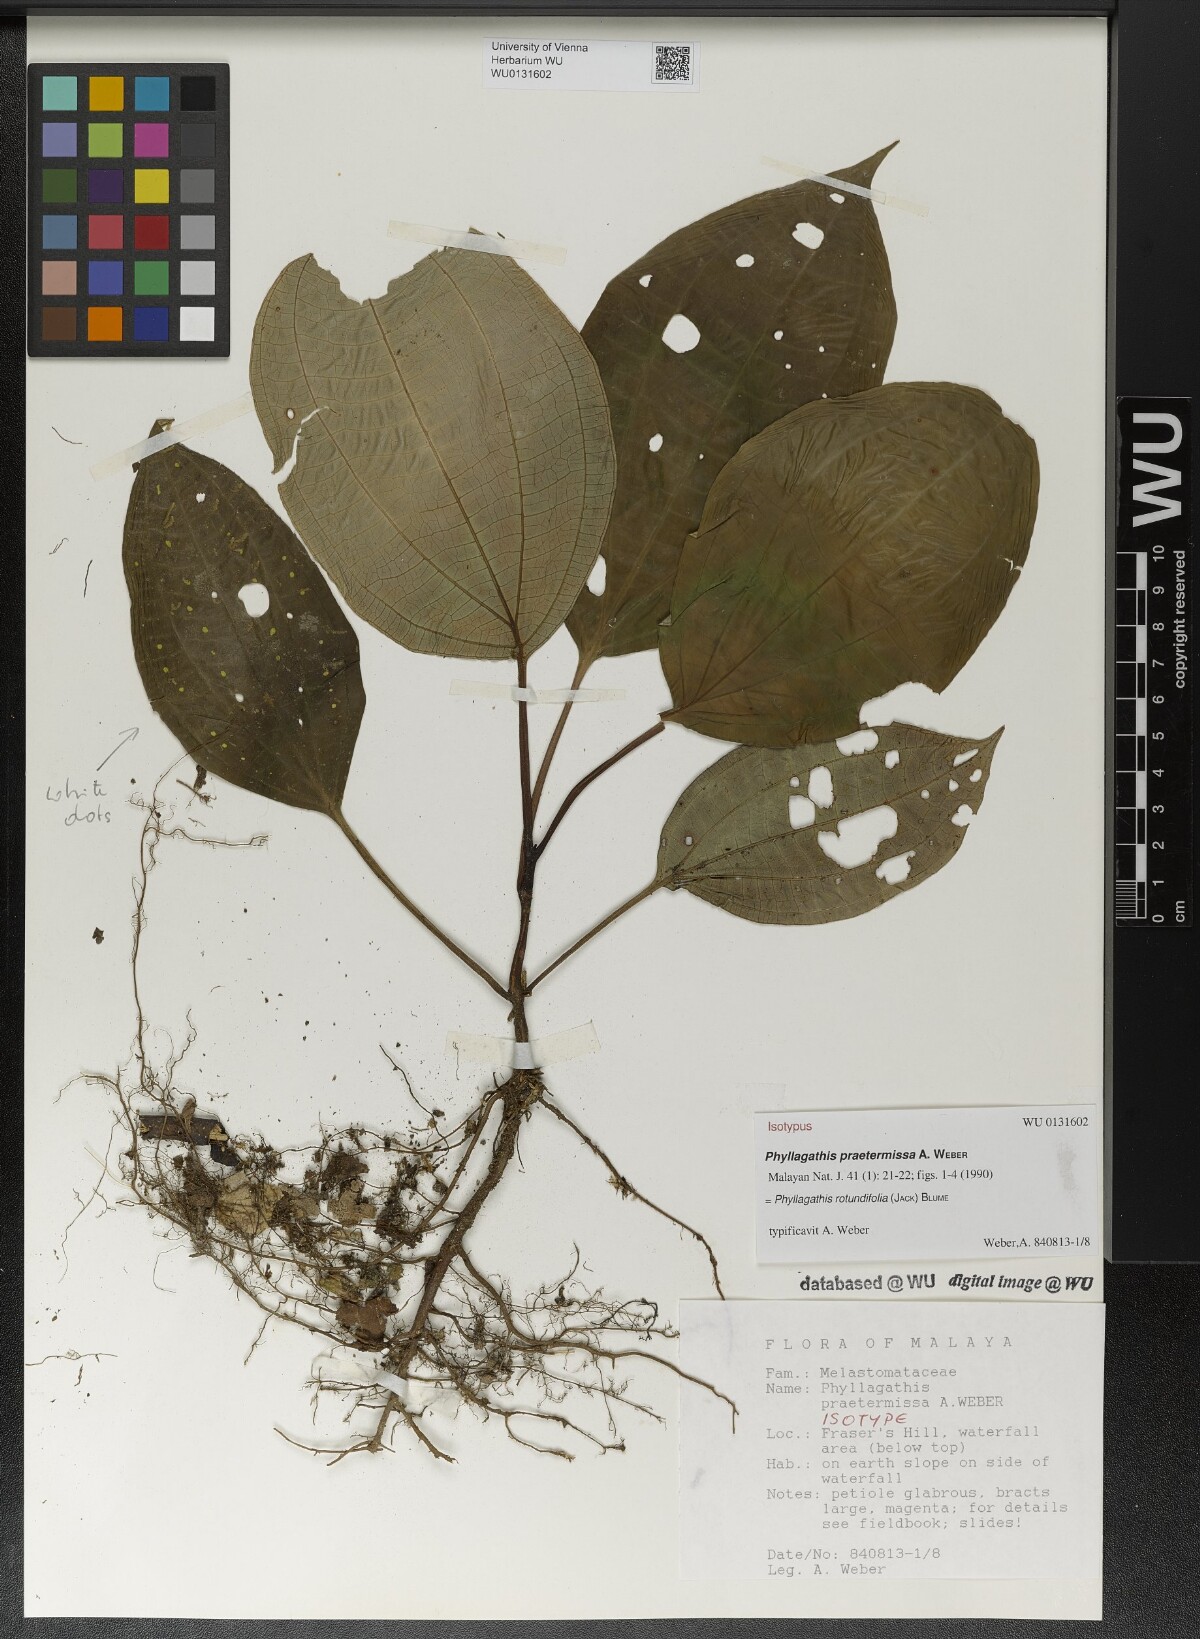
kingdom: Plantae
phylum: Tracheophyta
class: Magnoliopsida
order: Myrtales
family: Melastomataceae
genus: Phyllagathis
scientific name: Phyllagathis rotundifolia
